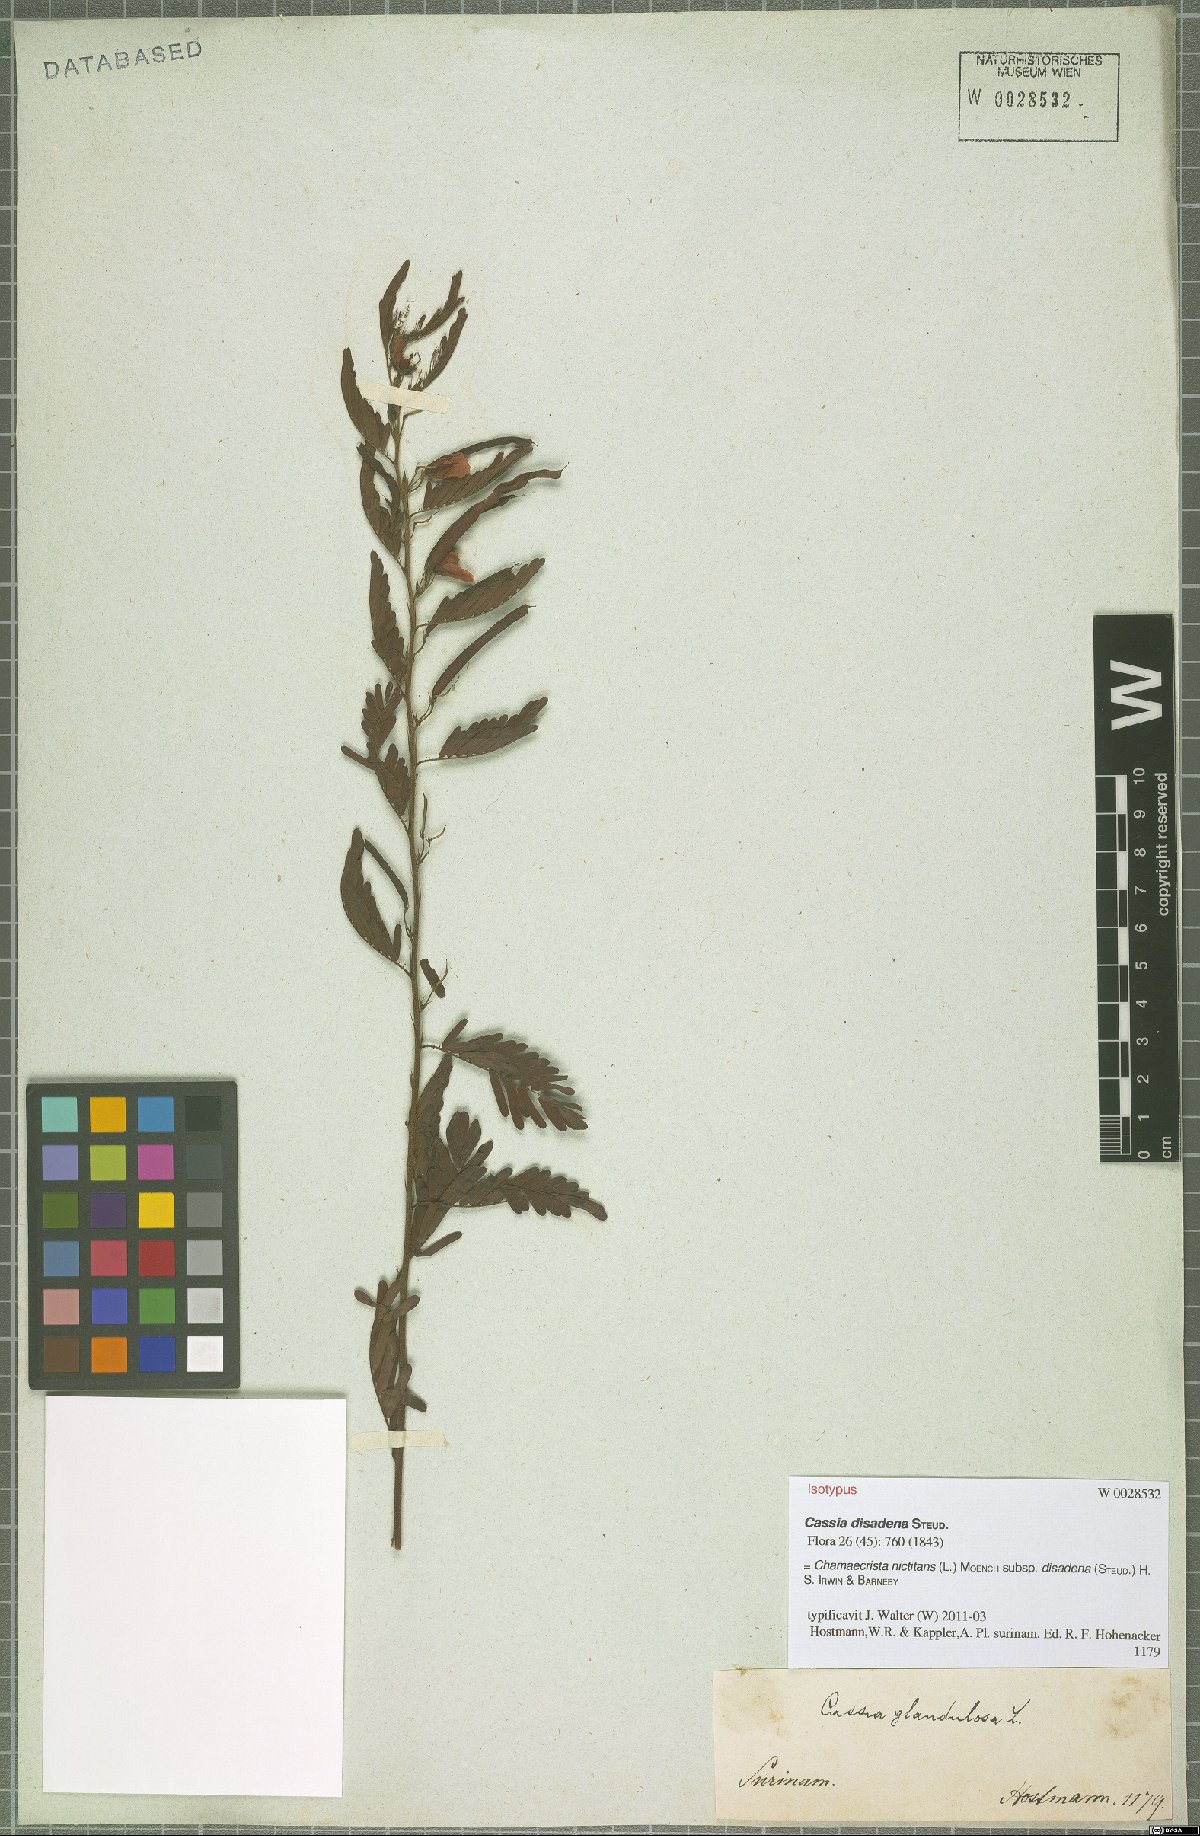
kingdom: Plantae
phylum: Tracheophyta
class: Magnoliopsida
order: Fabales
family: Fabaceae
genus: Chamaecrista
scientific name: Chamaecrista nictitans
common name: Sensitive cassia
